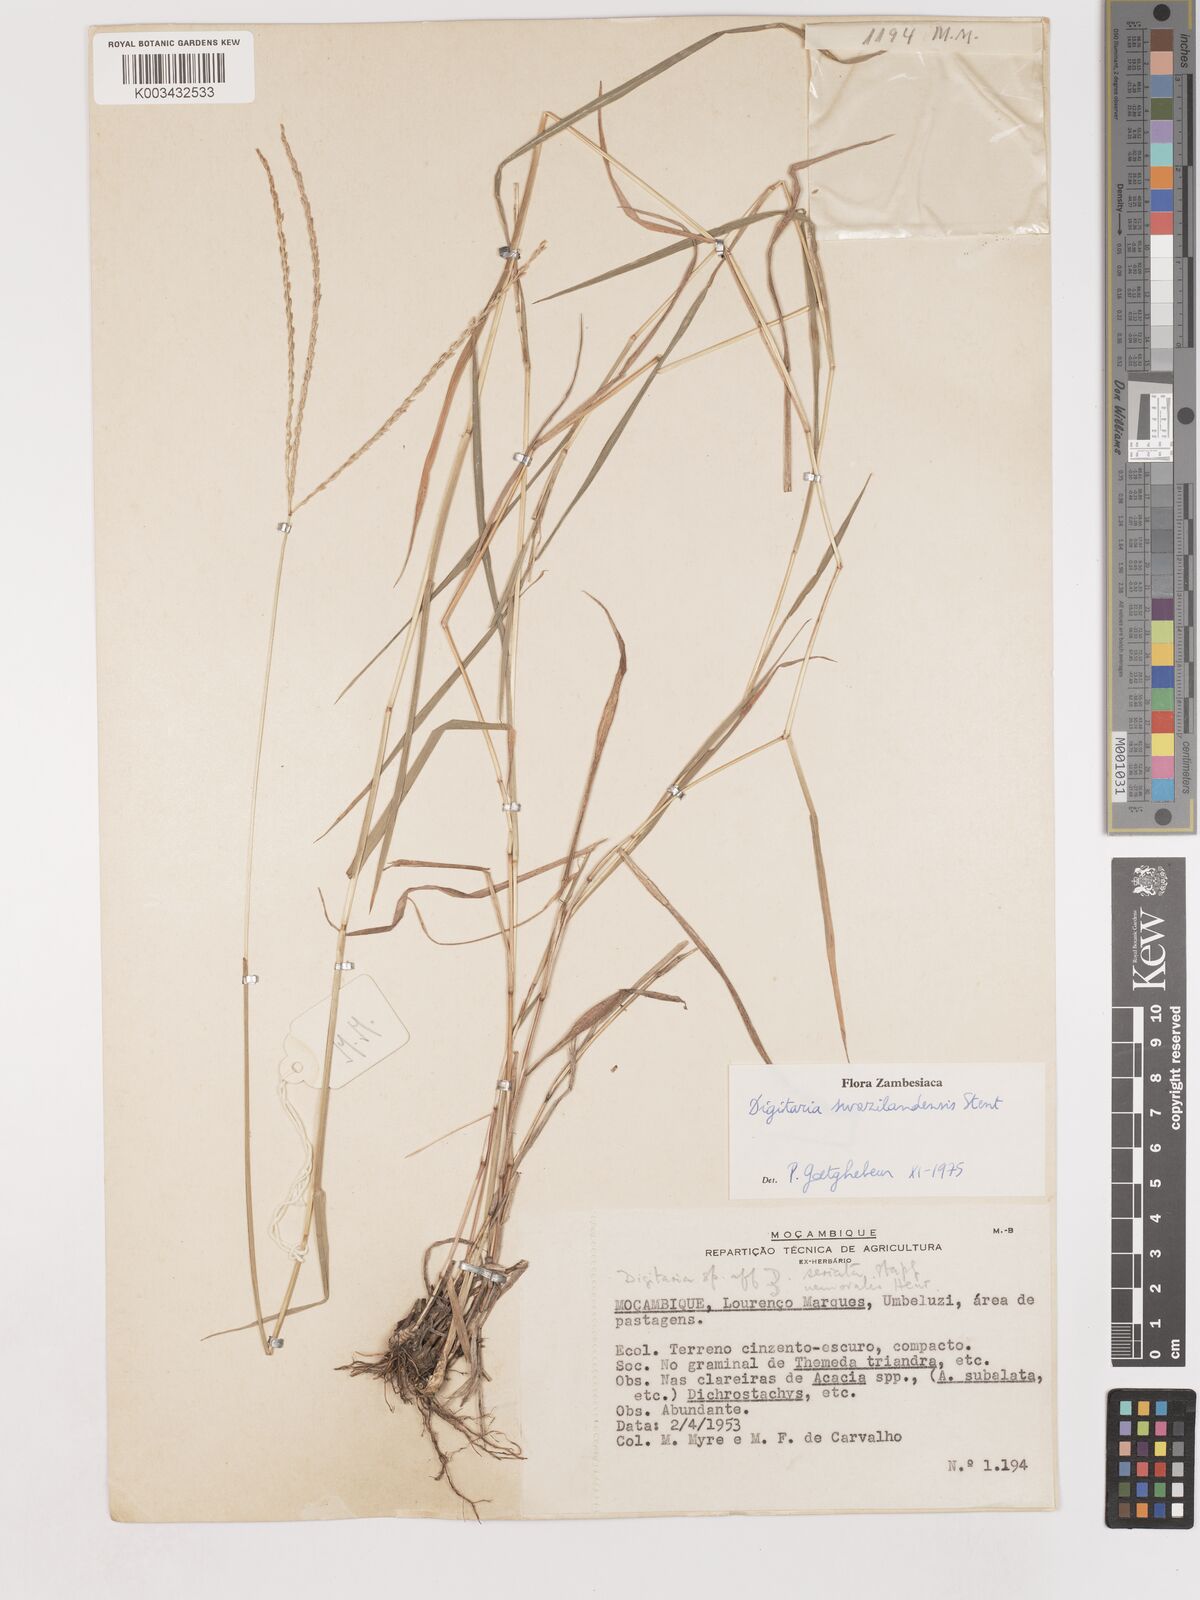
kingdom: Plantae
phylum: Tracheophyta
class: Liliopsida
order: Poales
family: Poaceae
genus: Digitaria
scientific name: Digitaria didactyla
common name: Blue couch
